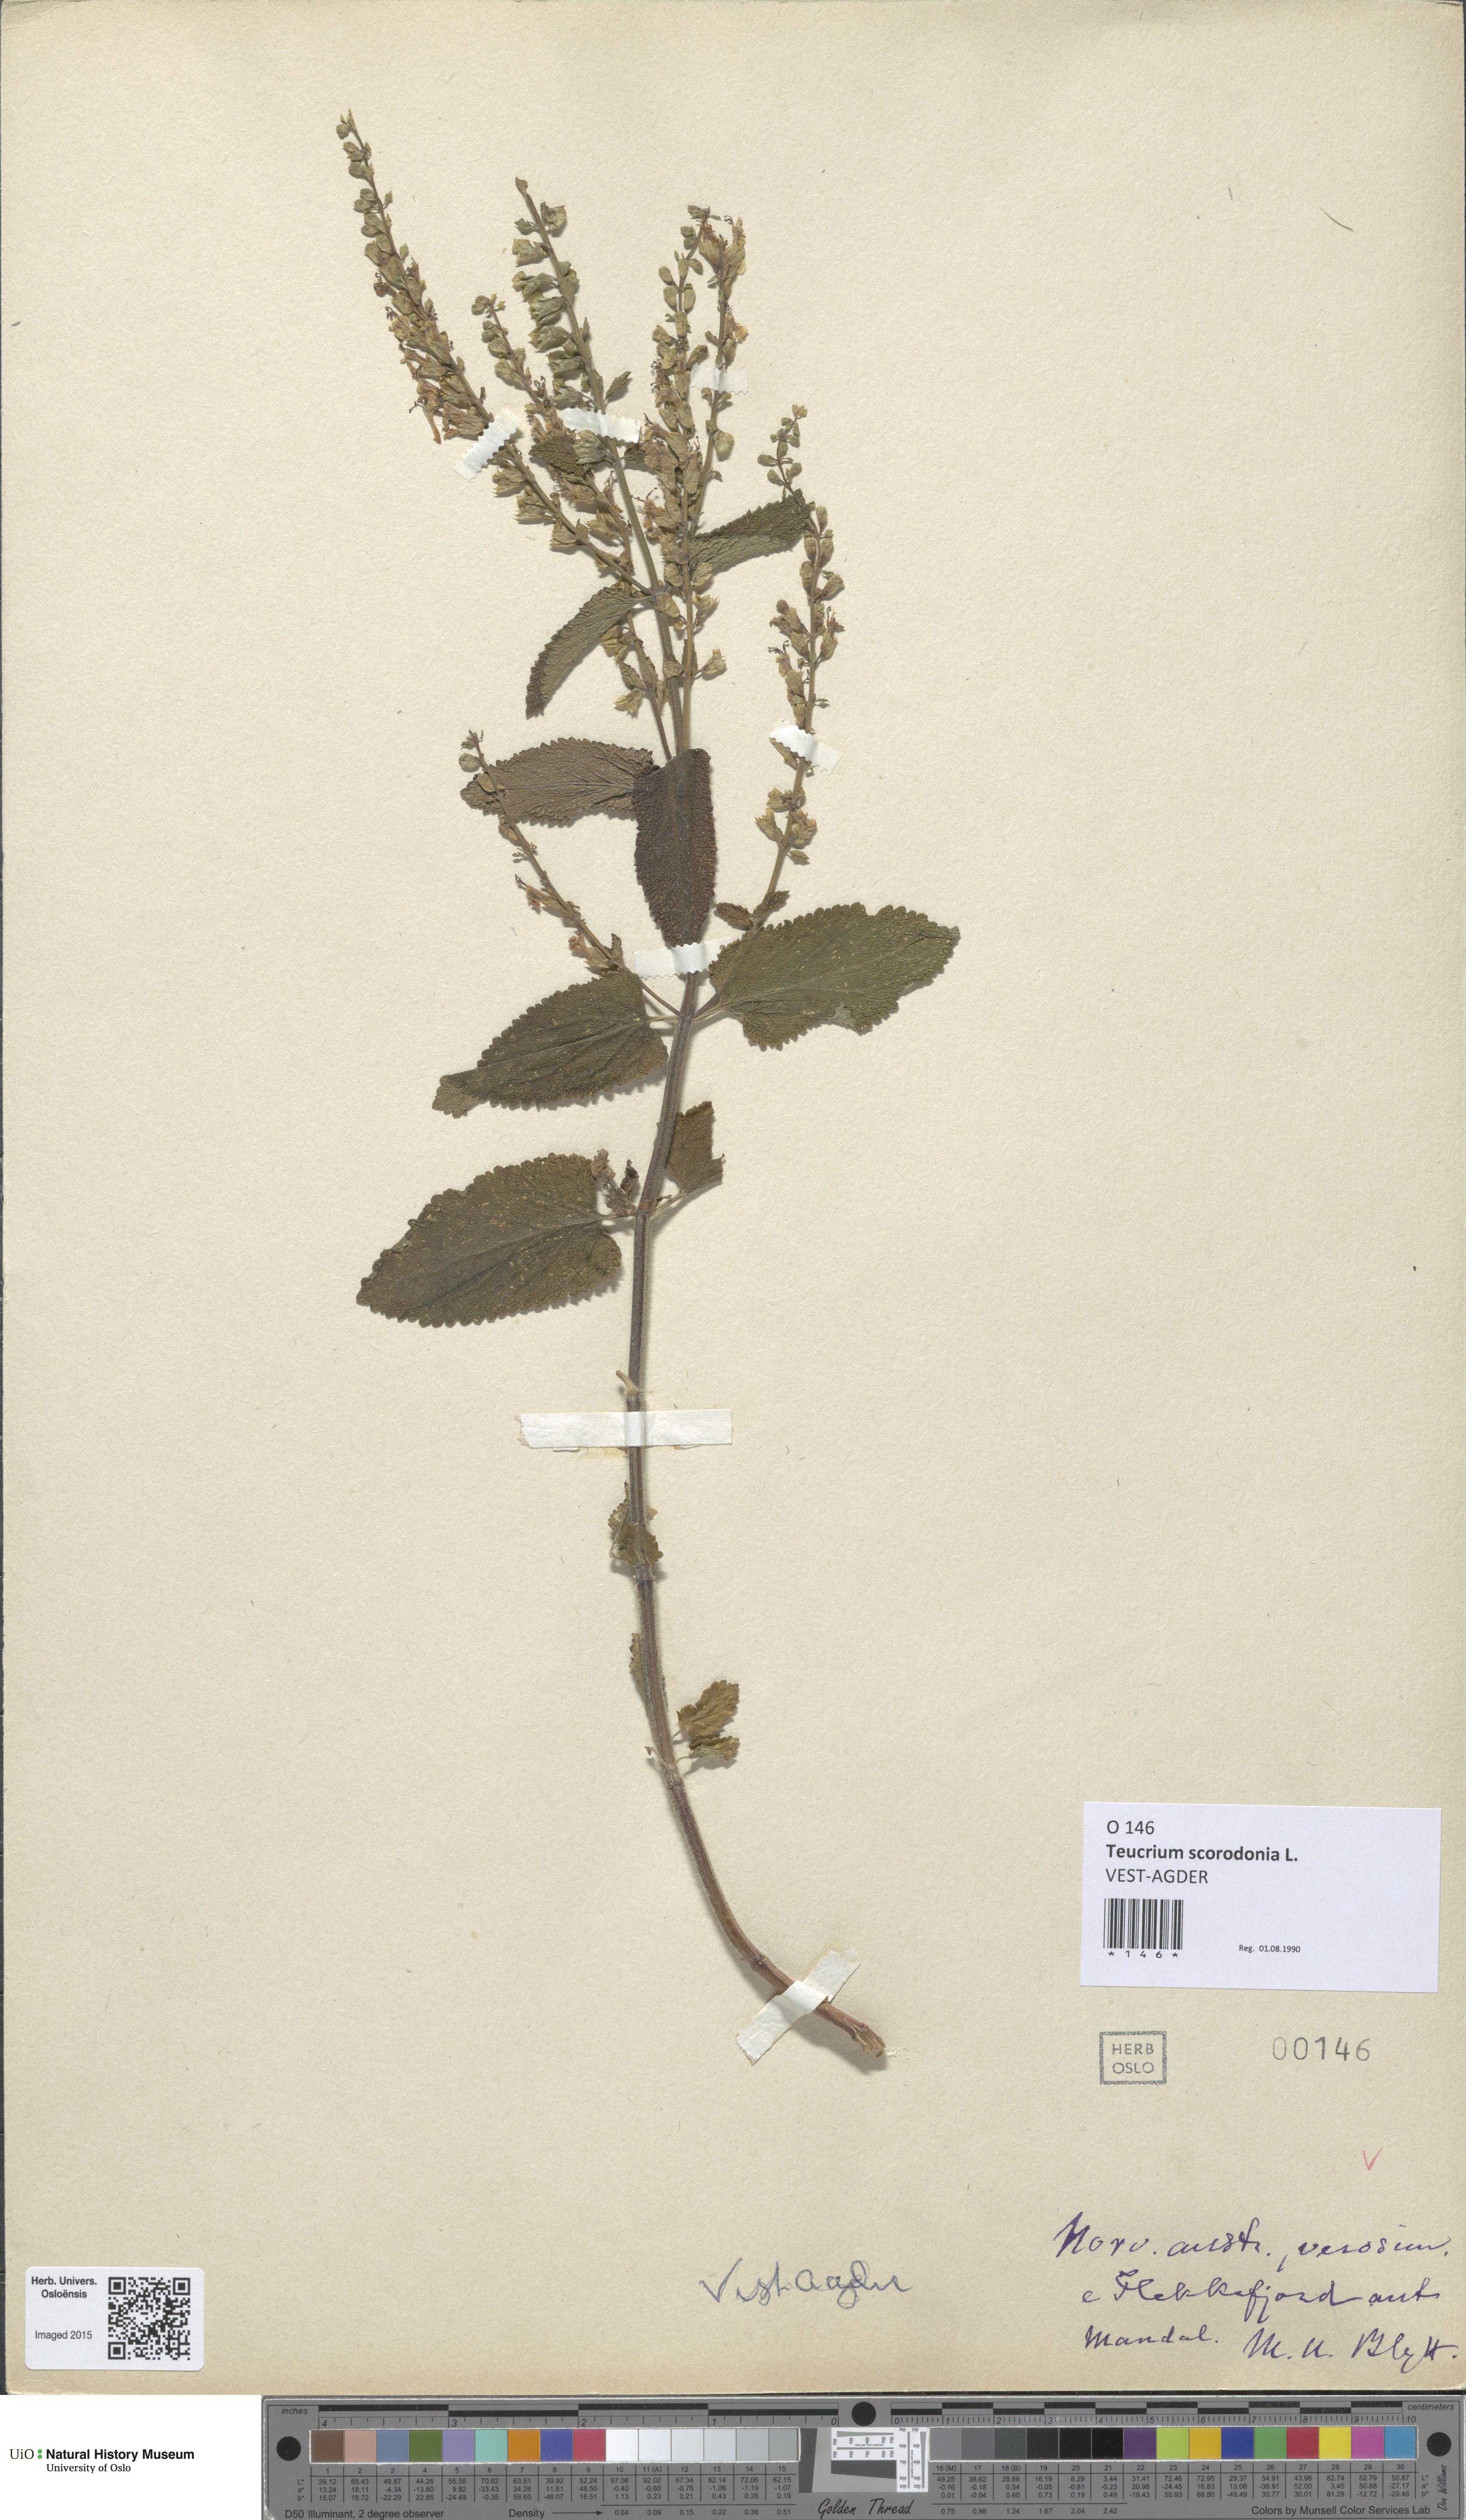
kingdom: Plantae
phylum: Tracheophyta
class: Magnoliopsida
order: Lamiales
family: Lamiaceae
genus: Teucrium
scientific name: Teucrium scorodonia
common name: Woodland germander
